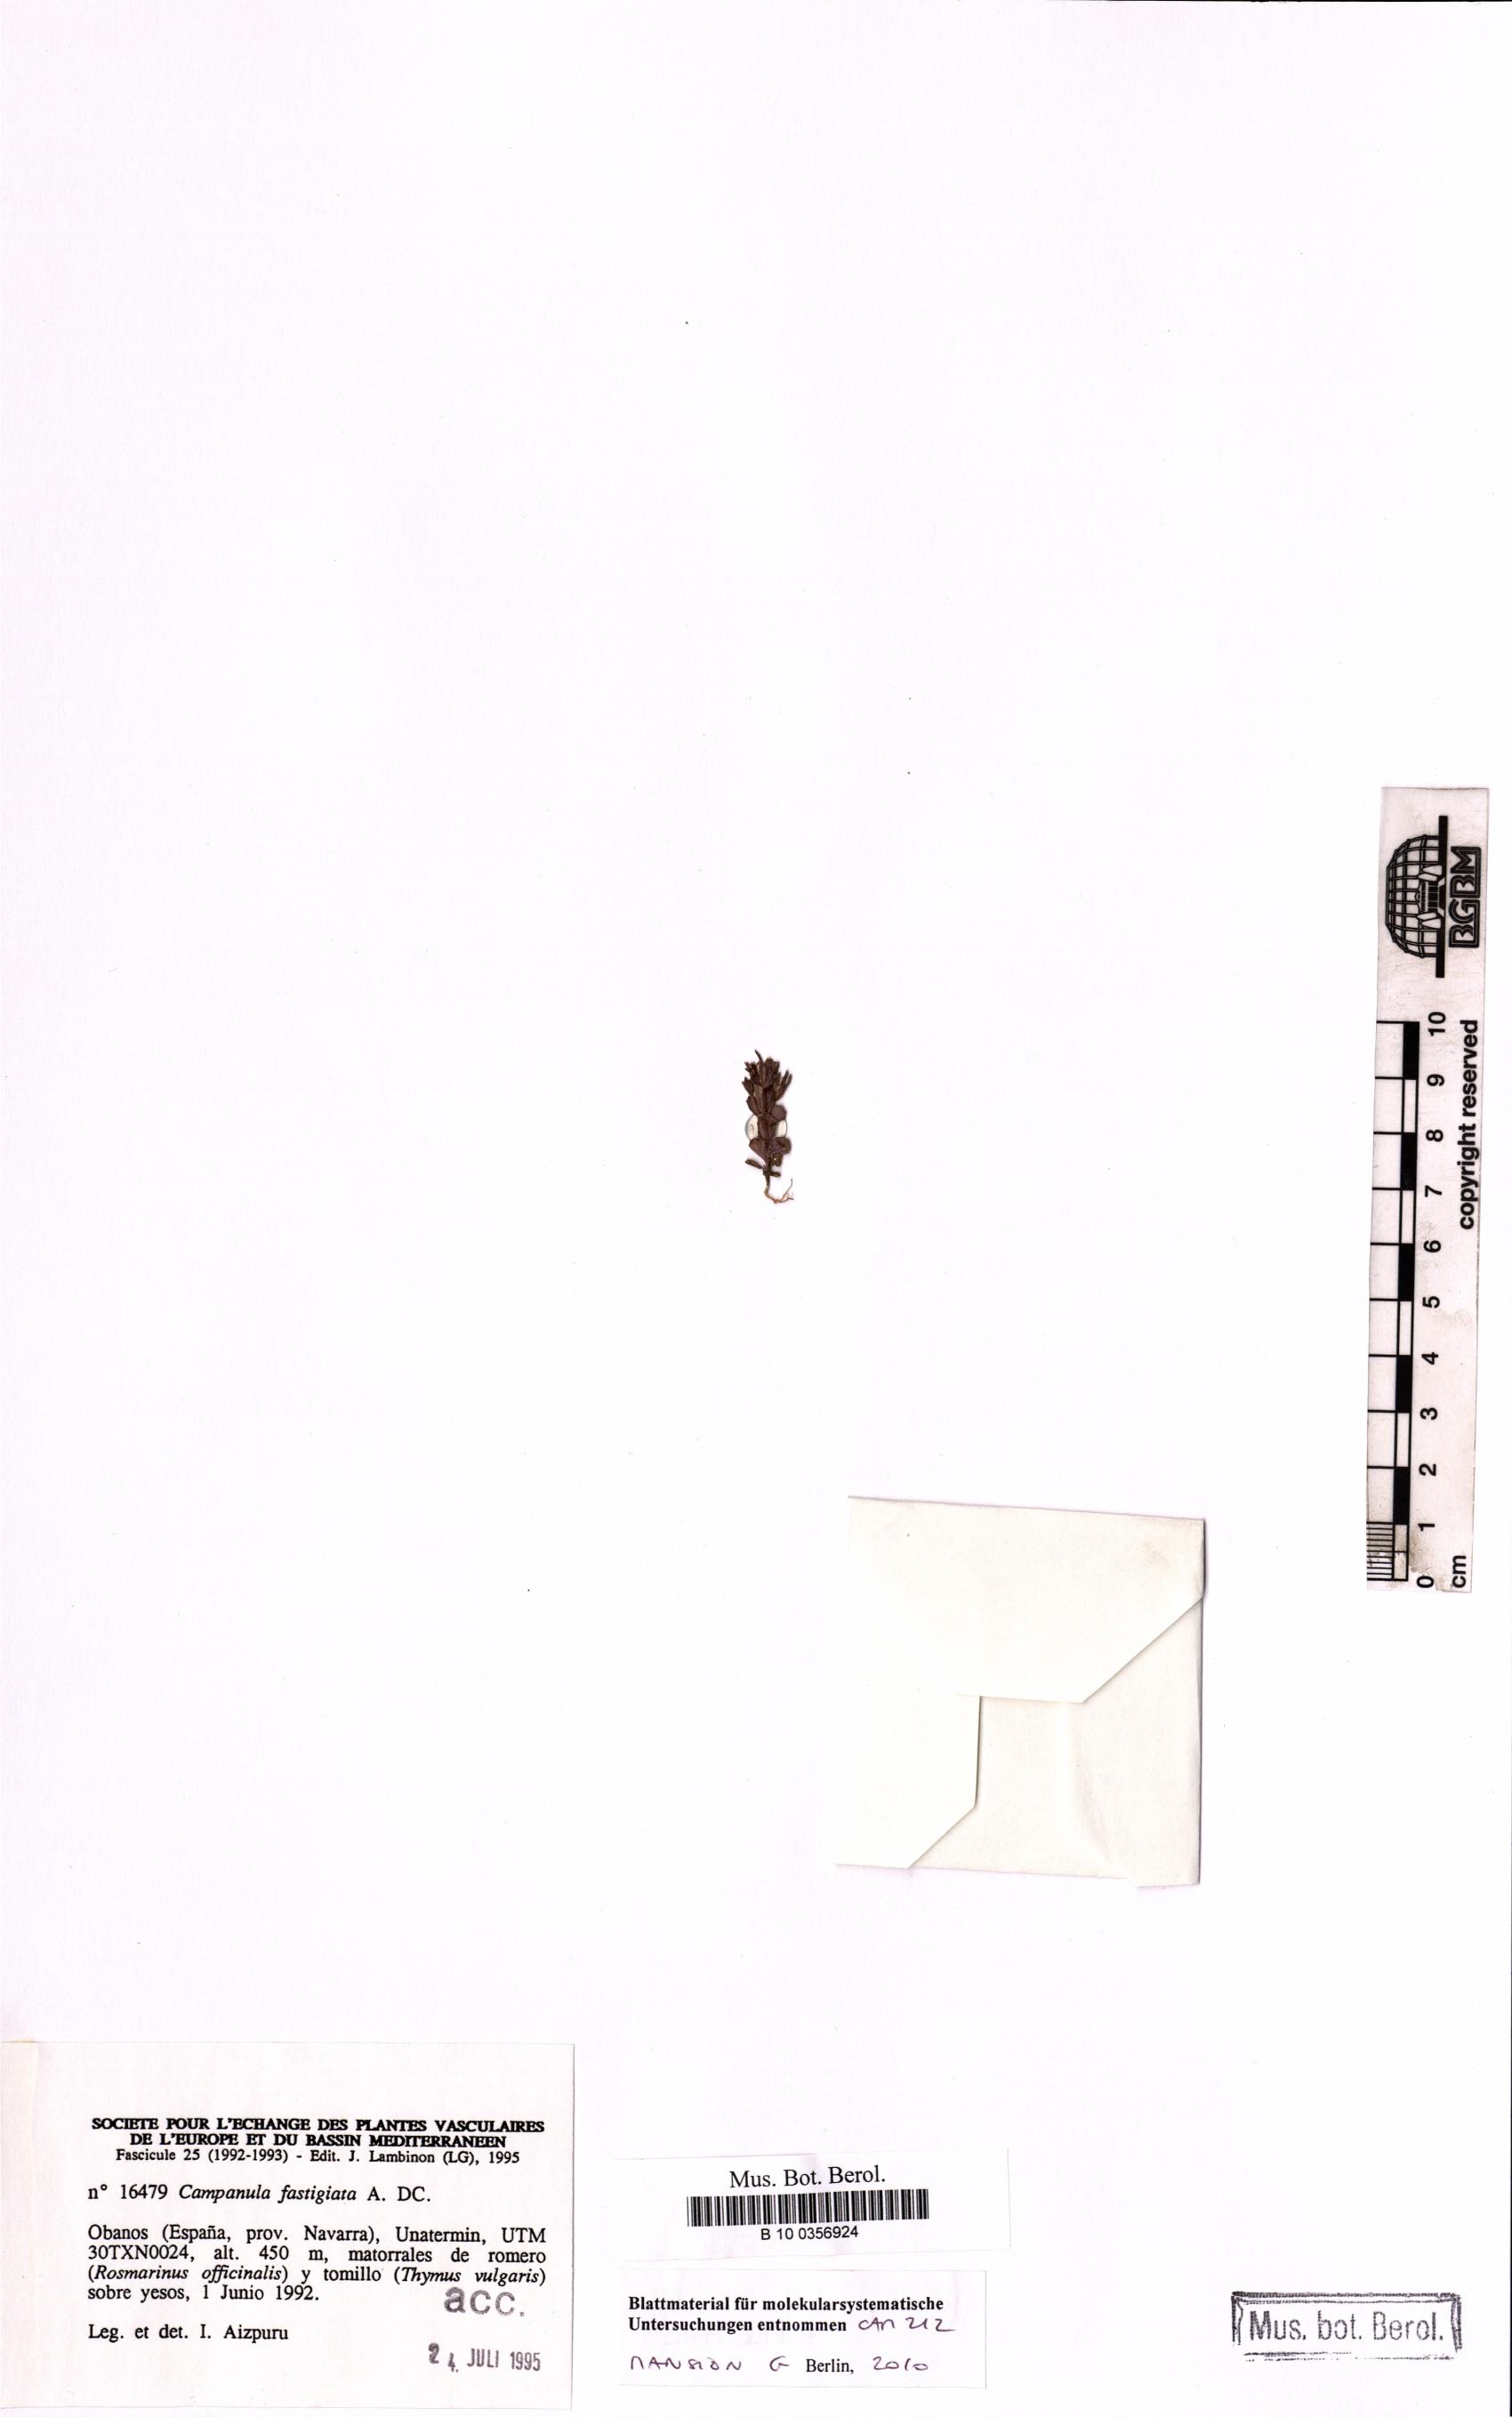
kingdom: Plantae
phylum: Tracheophyta
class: Magnoliopsida
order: Asterales
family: Campanulaceae
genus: Campanula
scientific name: Campanula fastigiata
